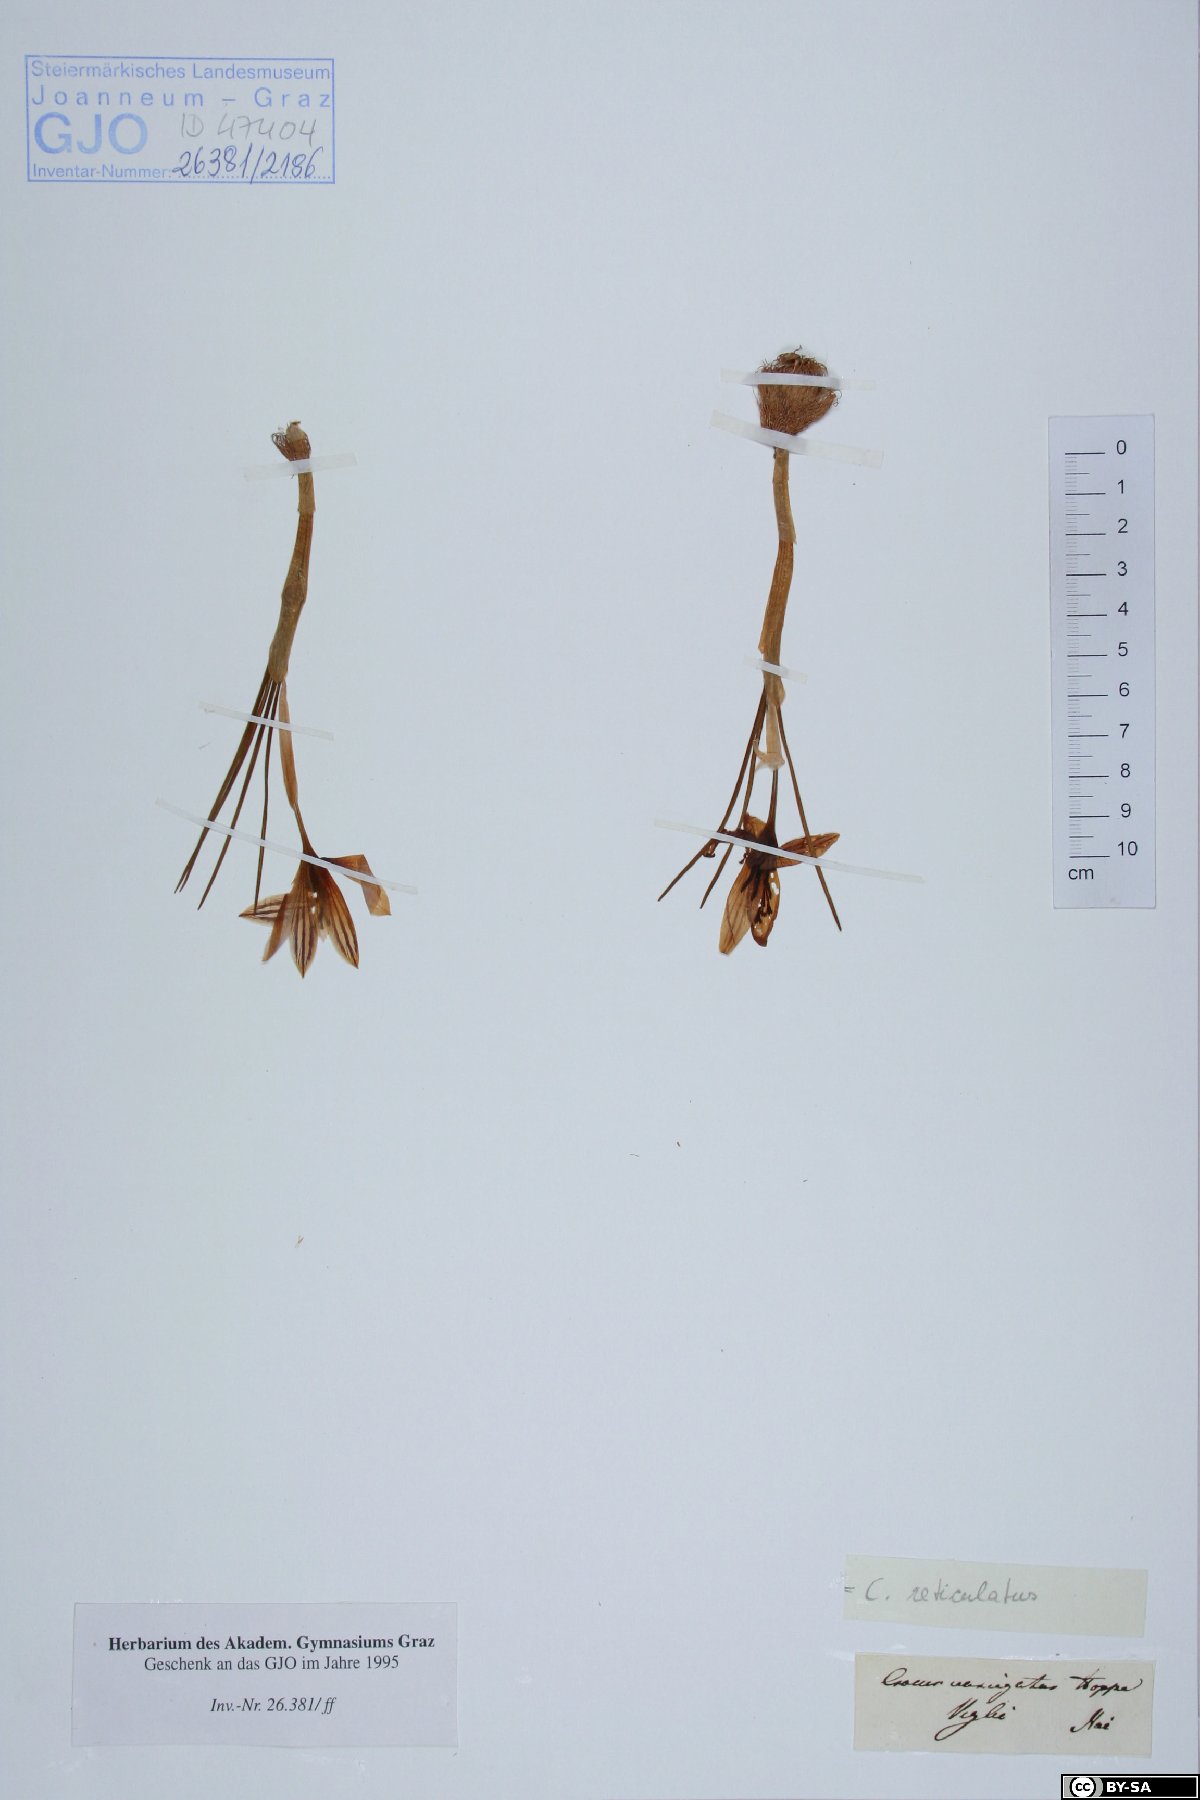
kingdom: Plantae
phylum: Tracheophyta
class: Liliopsida
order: Asparagales
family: Iridaceae
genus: Crocus
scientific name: Crocus variegatus
